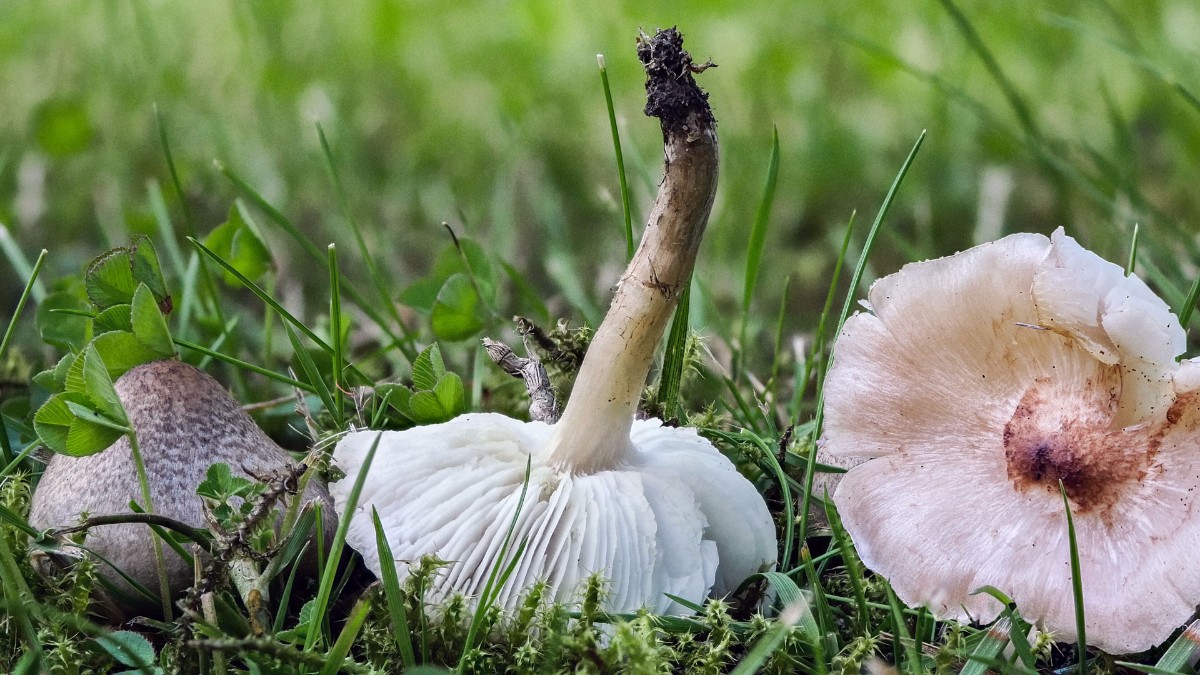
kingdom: Fungi
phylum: Basidiomycota
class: Agaricomycetes
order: Agaricales
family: Tricholomataceae
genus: Tricholoma
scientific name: Tricholoma argyraceum
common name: slør-ridderhat
